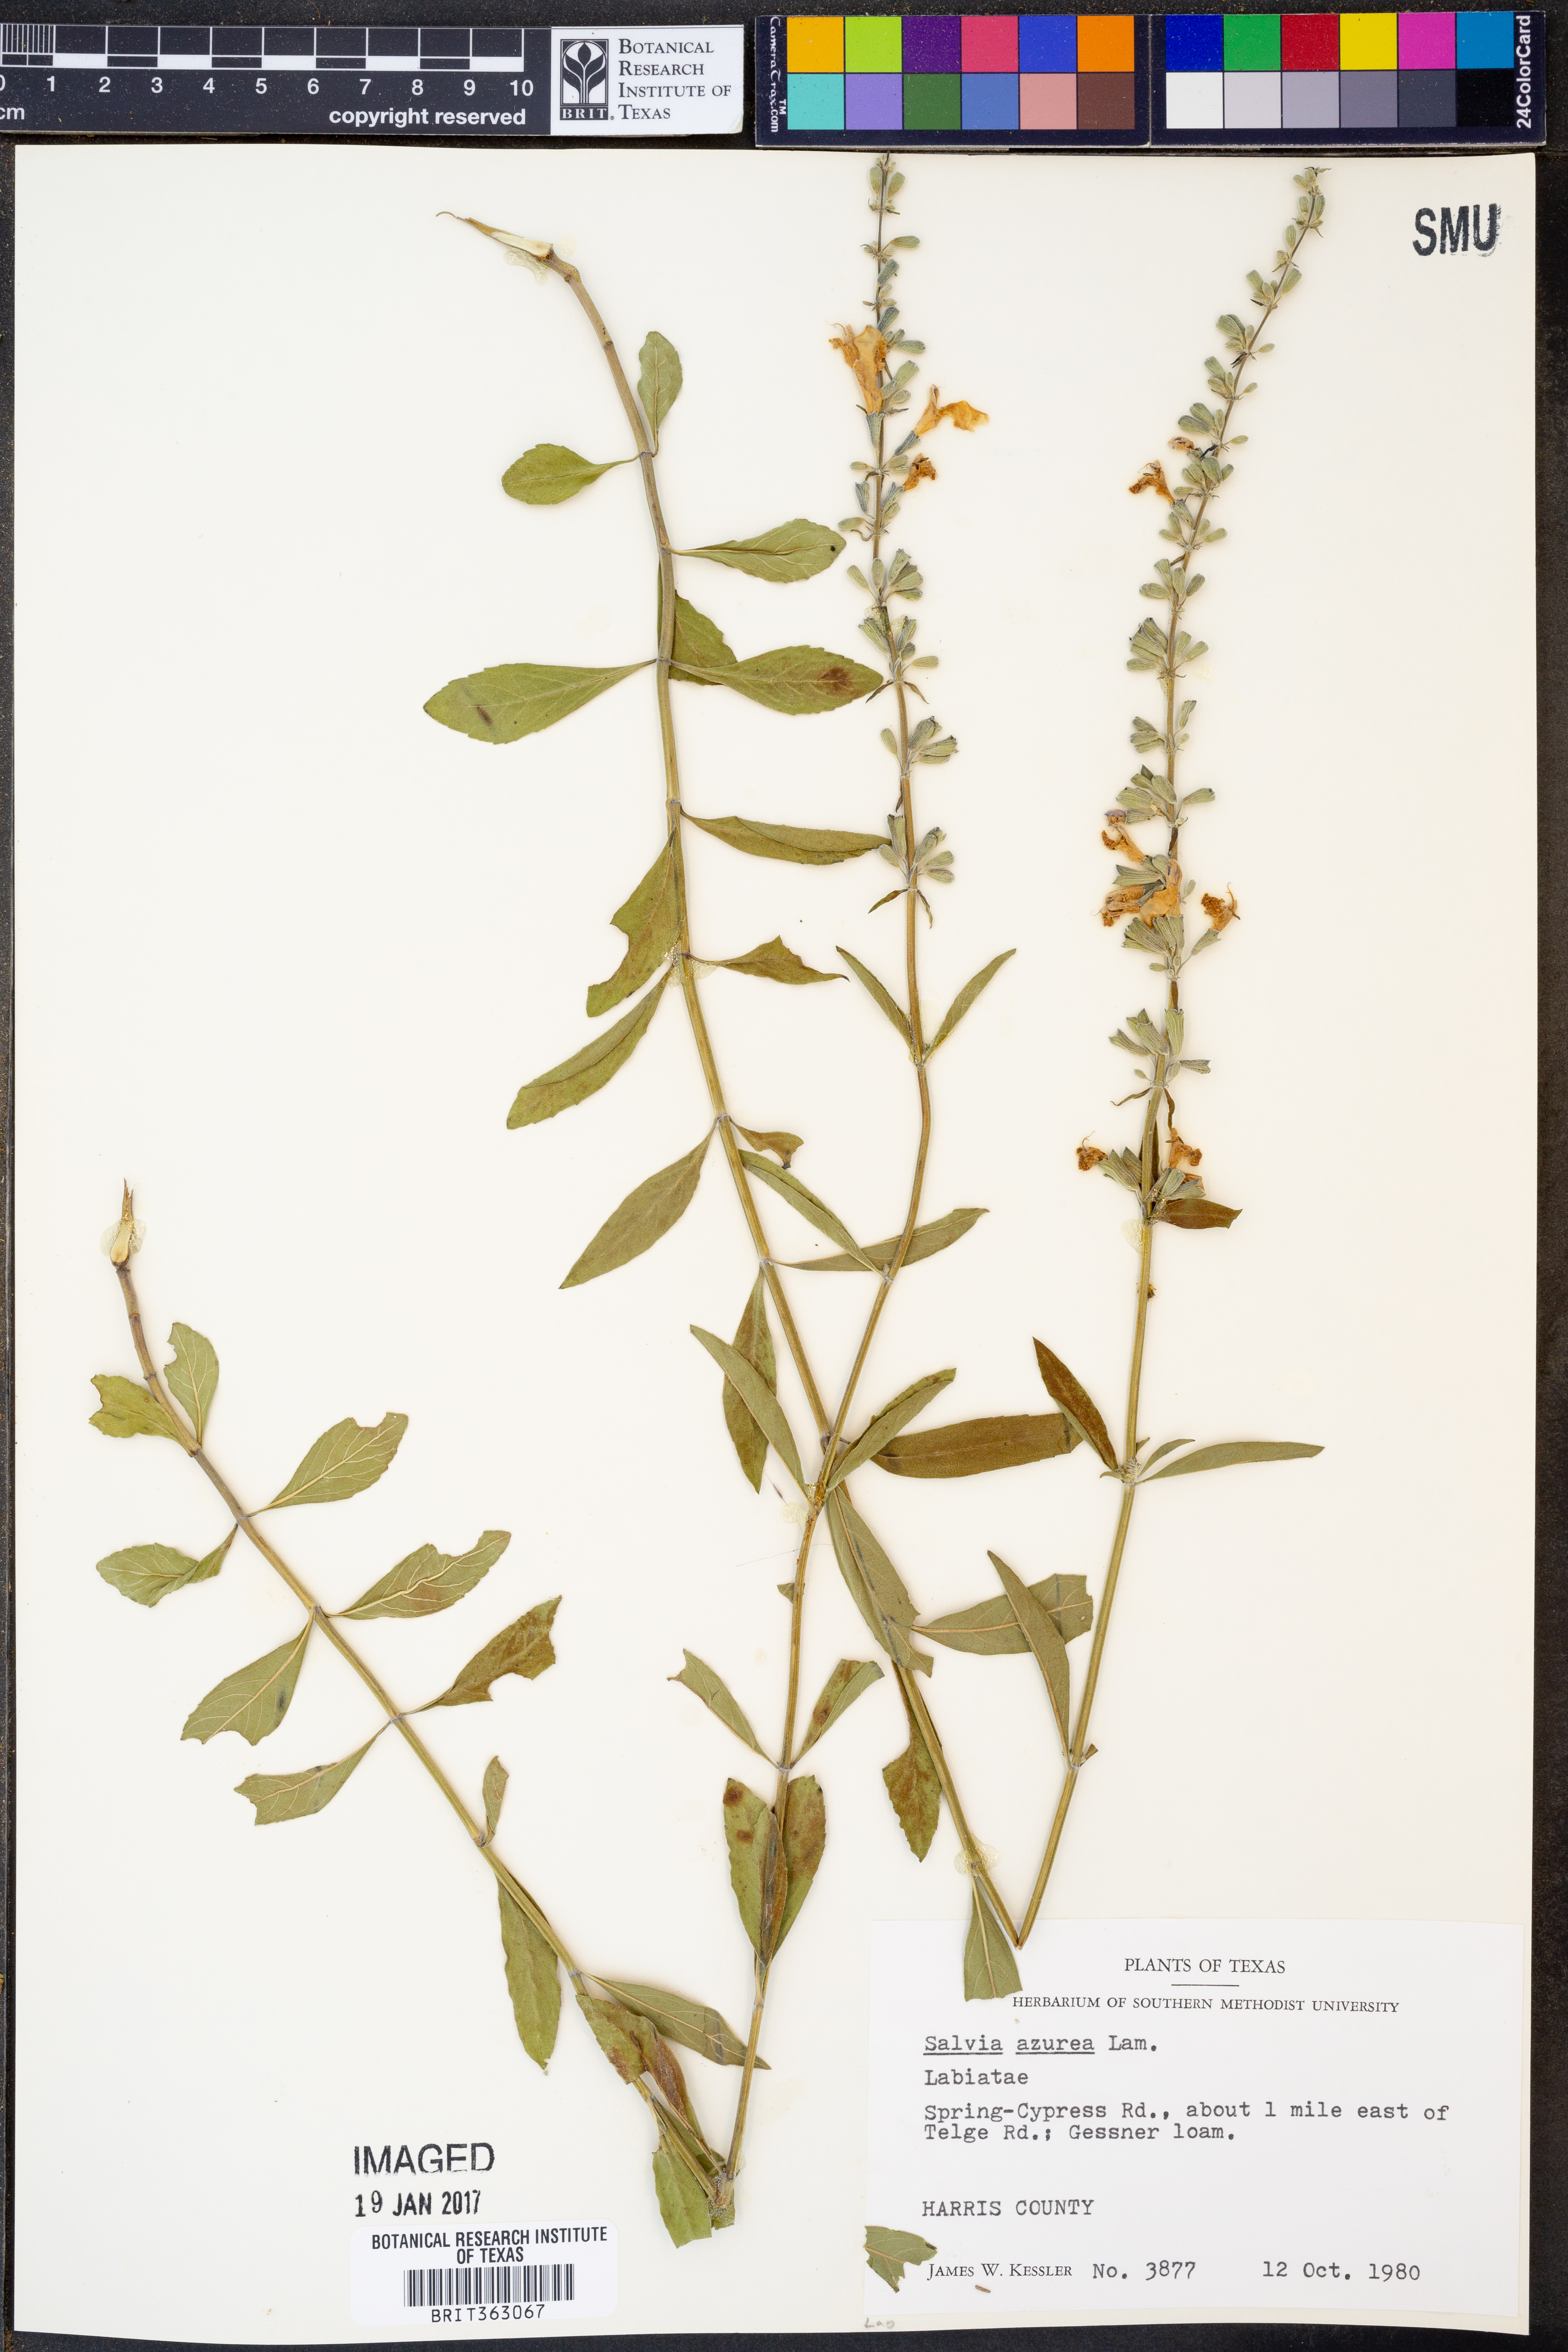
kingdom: Plantae
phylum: Tracheophyta
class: Magnoliopsida
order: Lamiales
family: Lamiaceae
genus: Salvia
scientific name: Salvia azurea
